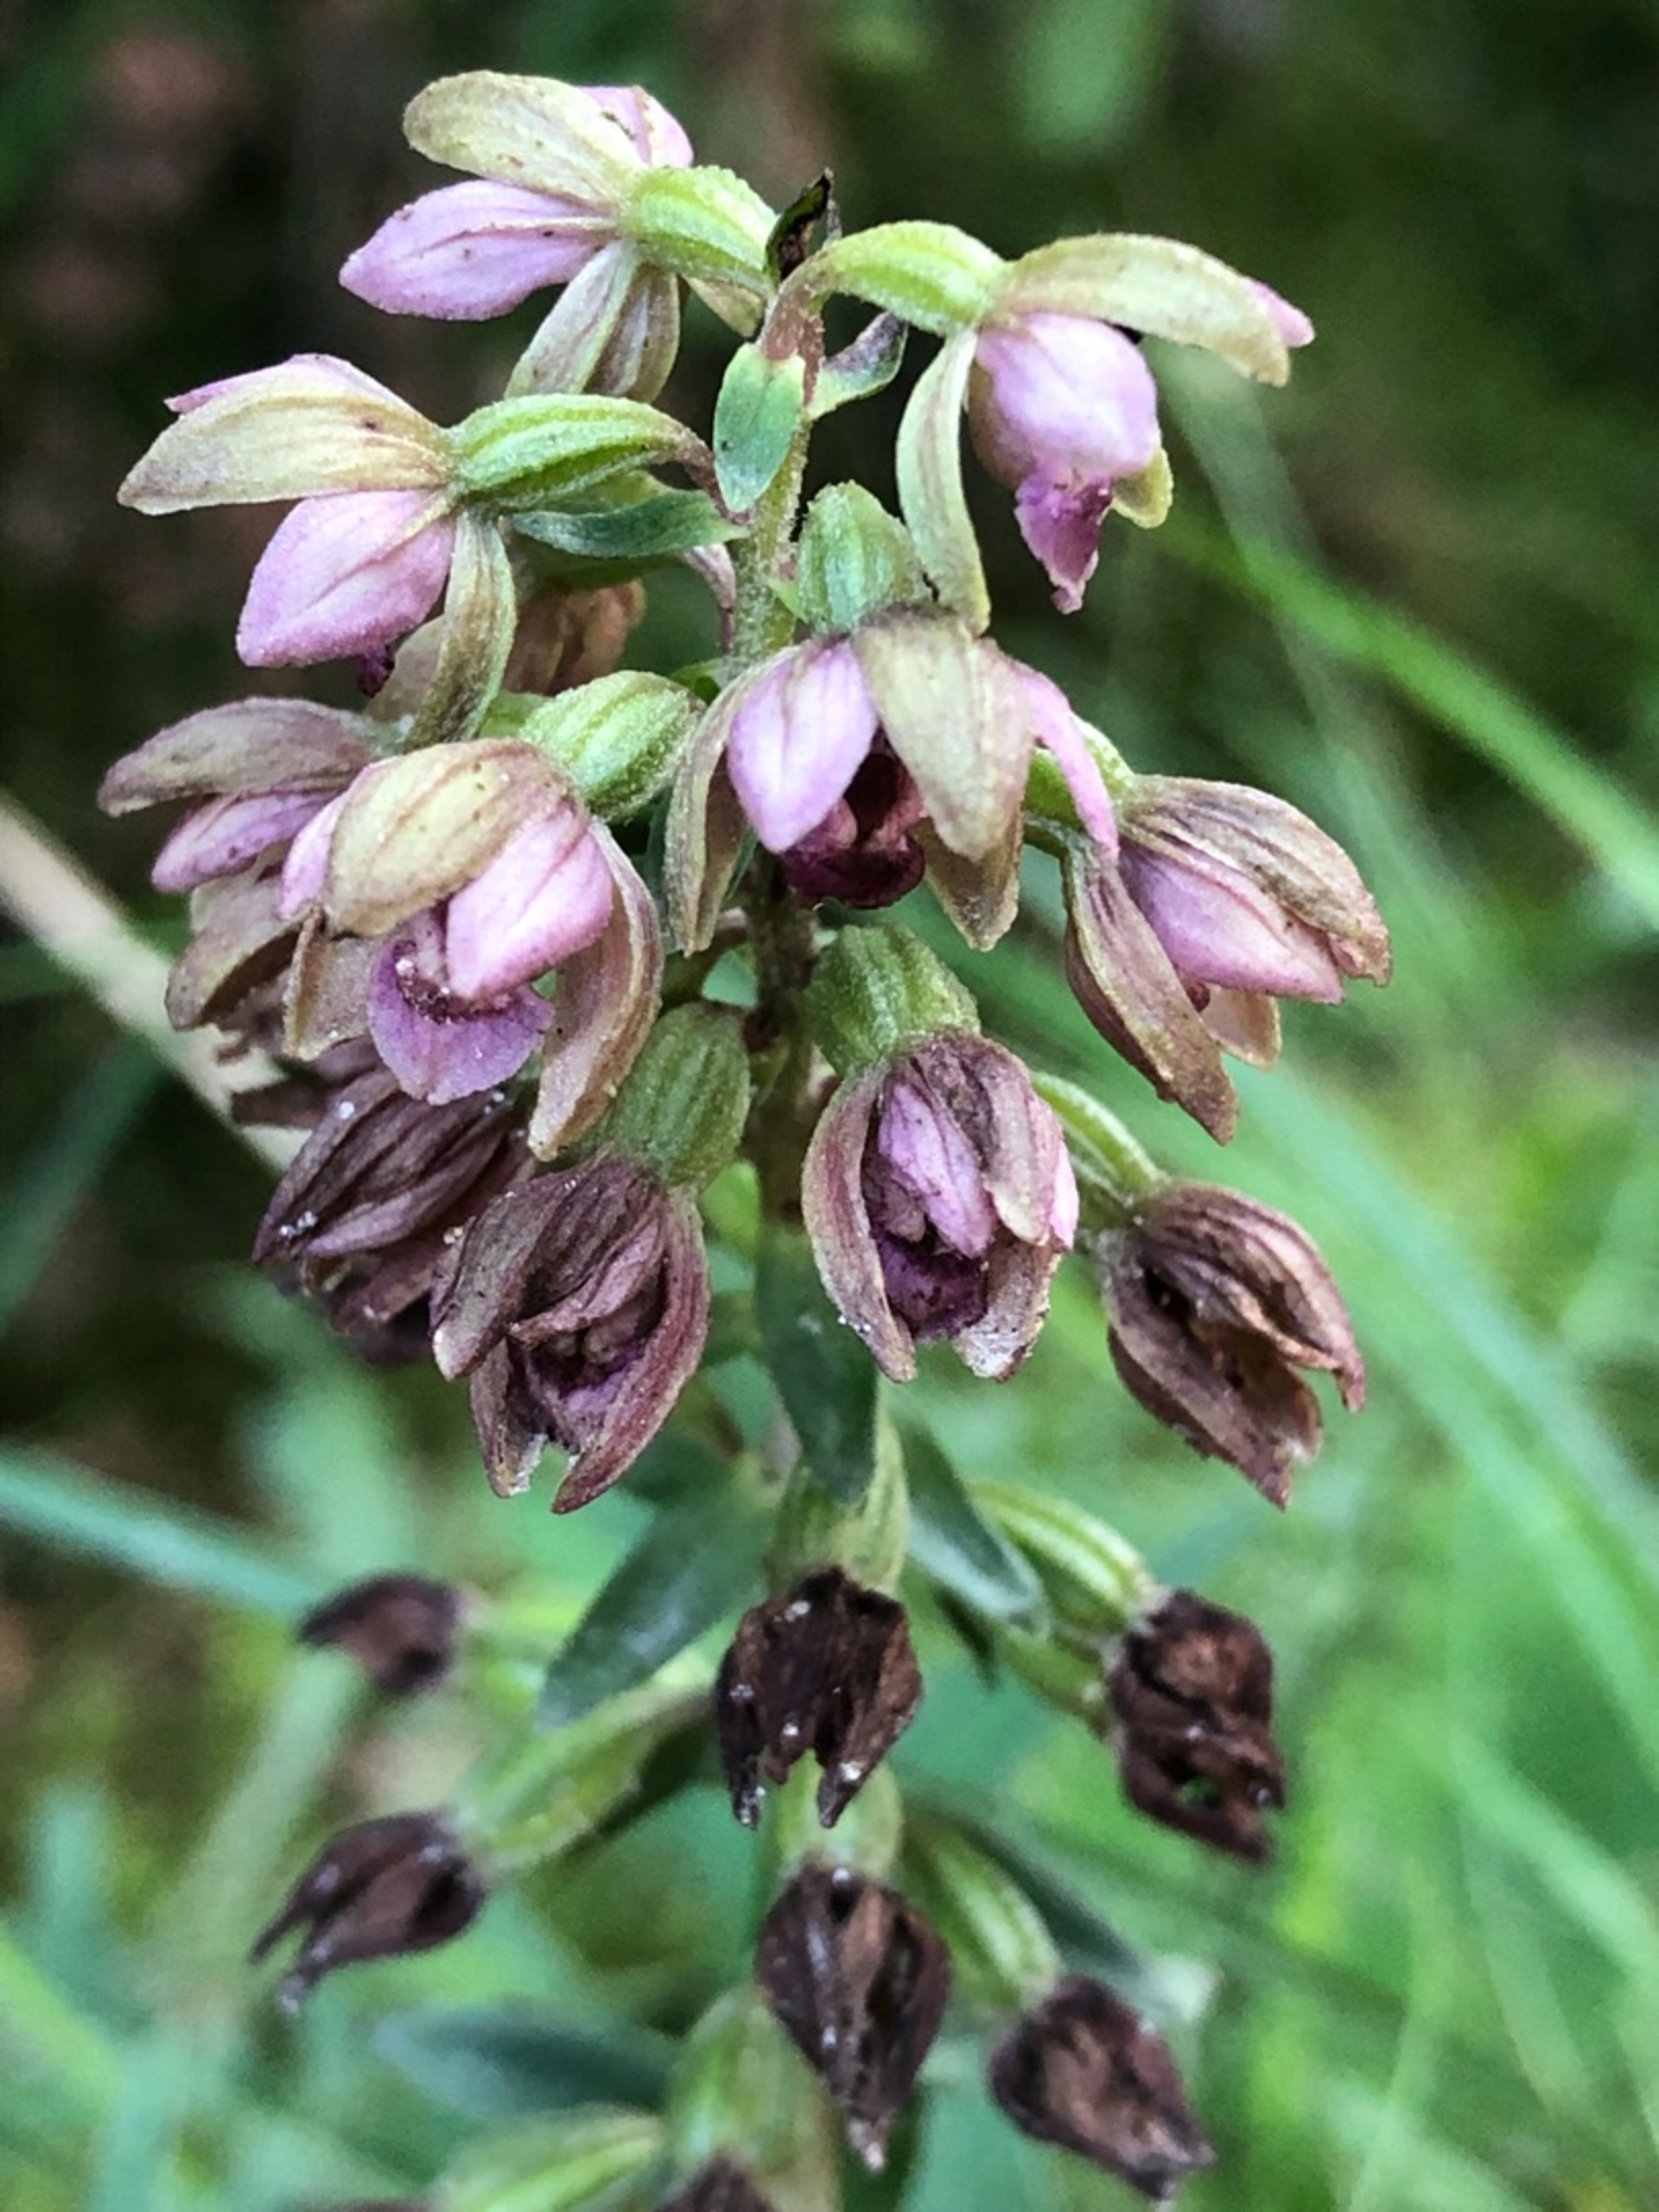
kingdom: Plantae
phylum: Tracheophyta
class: Liliopsida
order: Asparagales
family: Orchidaceae
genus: Epipactis
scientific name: Epipactis helleborine
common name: Skov-hullæbe
